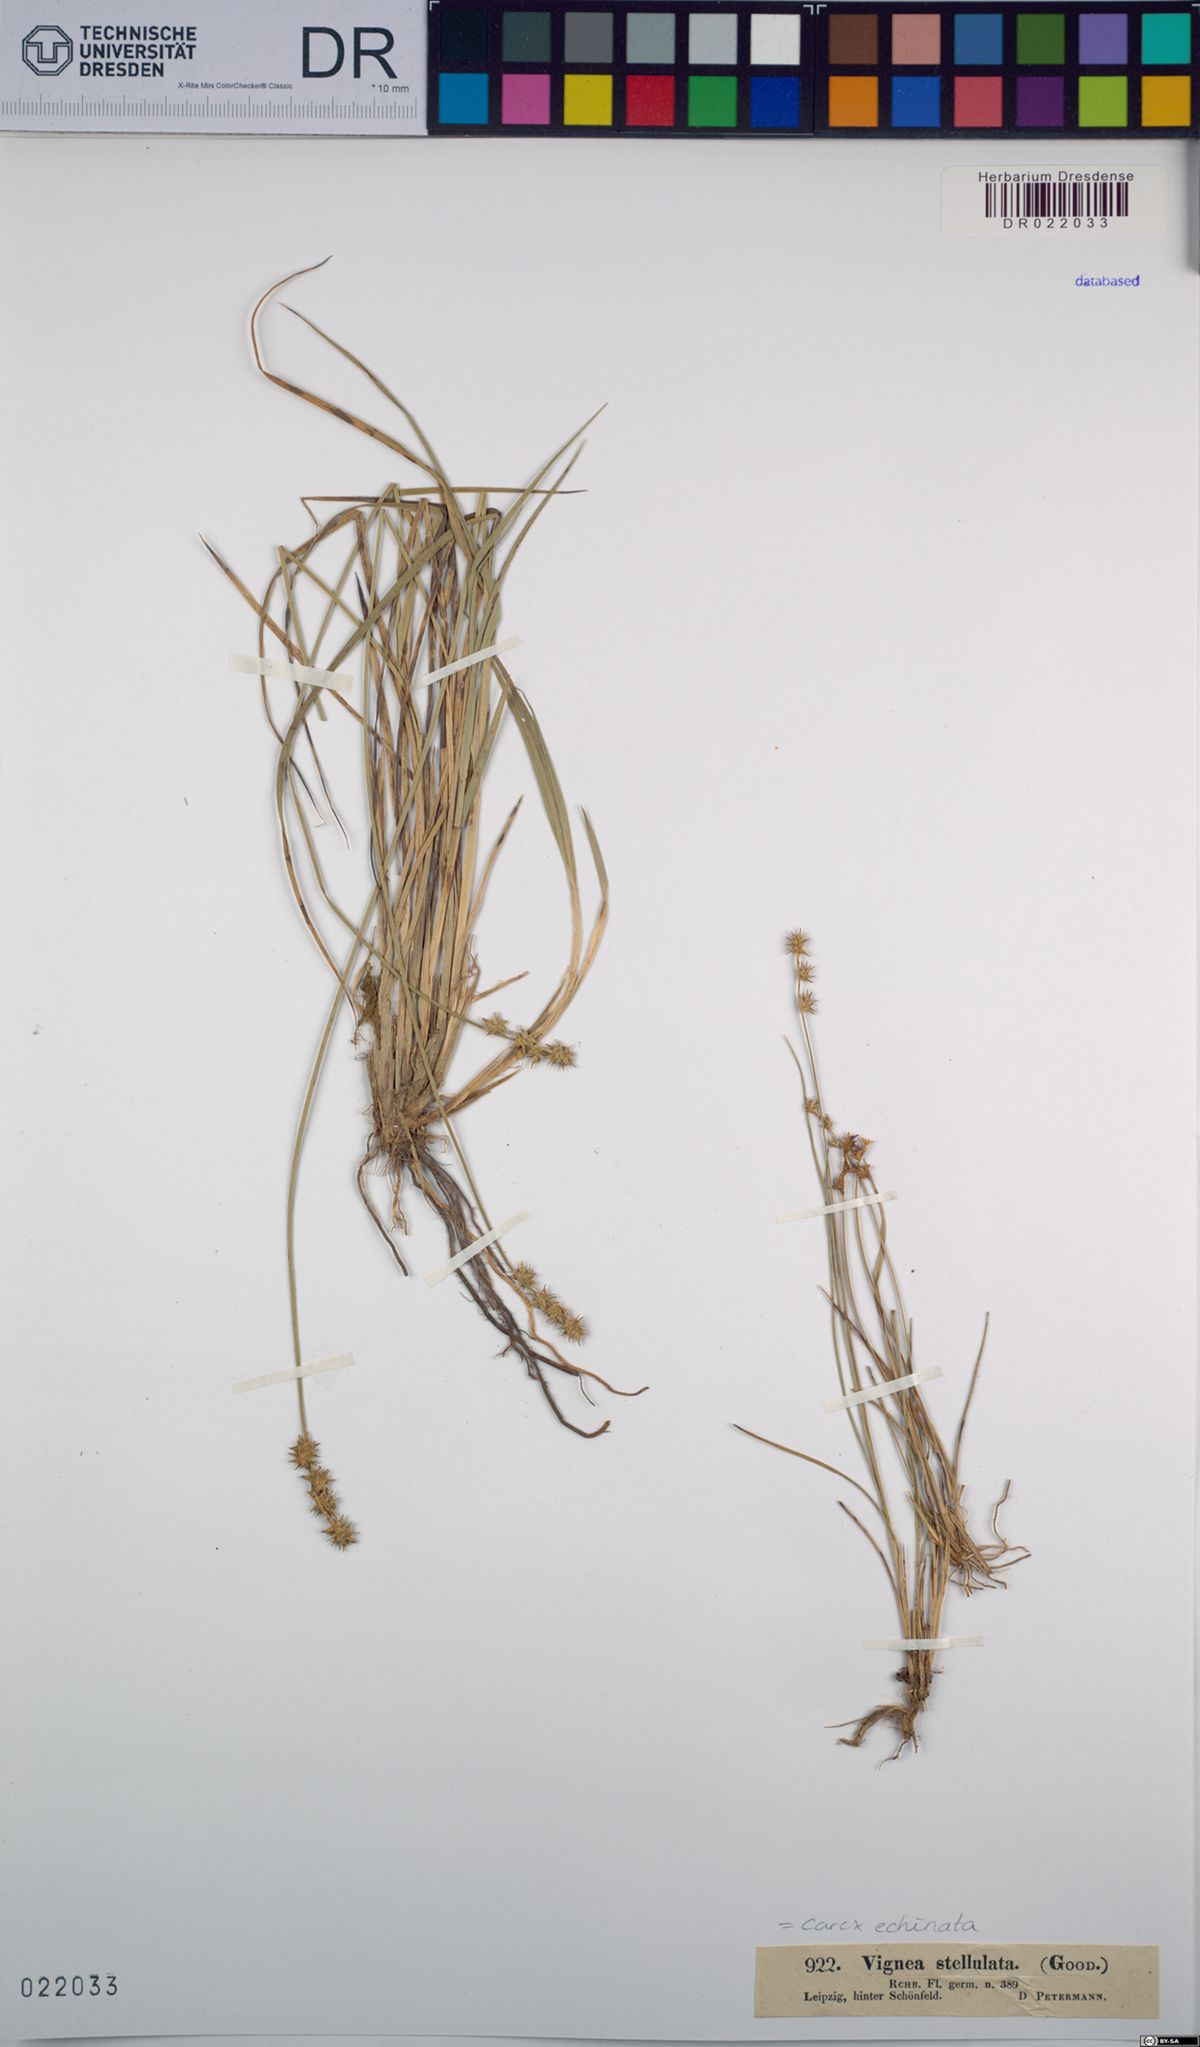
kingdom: Plantae
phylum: Tracheophyta
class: Liliopsida
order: Poales
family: Cyperaceae
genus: Carex
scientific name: Carex echinata
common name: Star sedge
